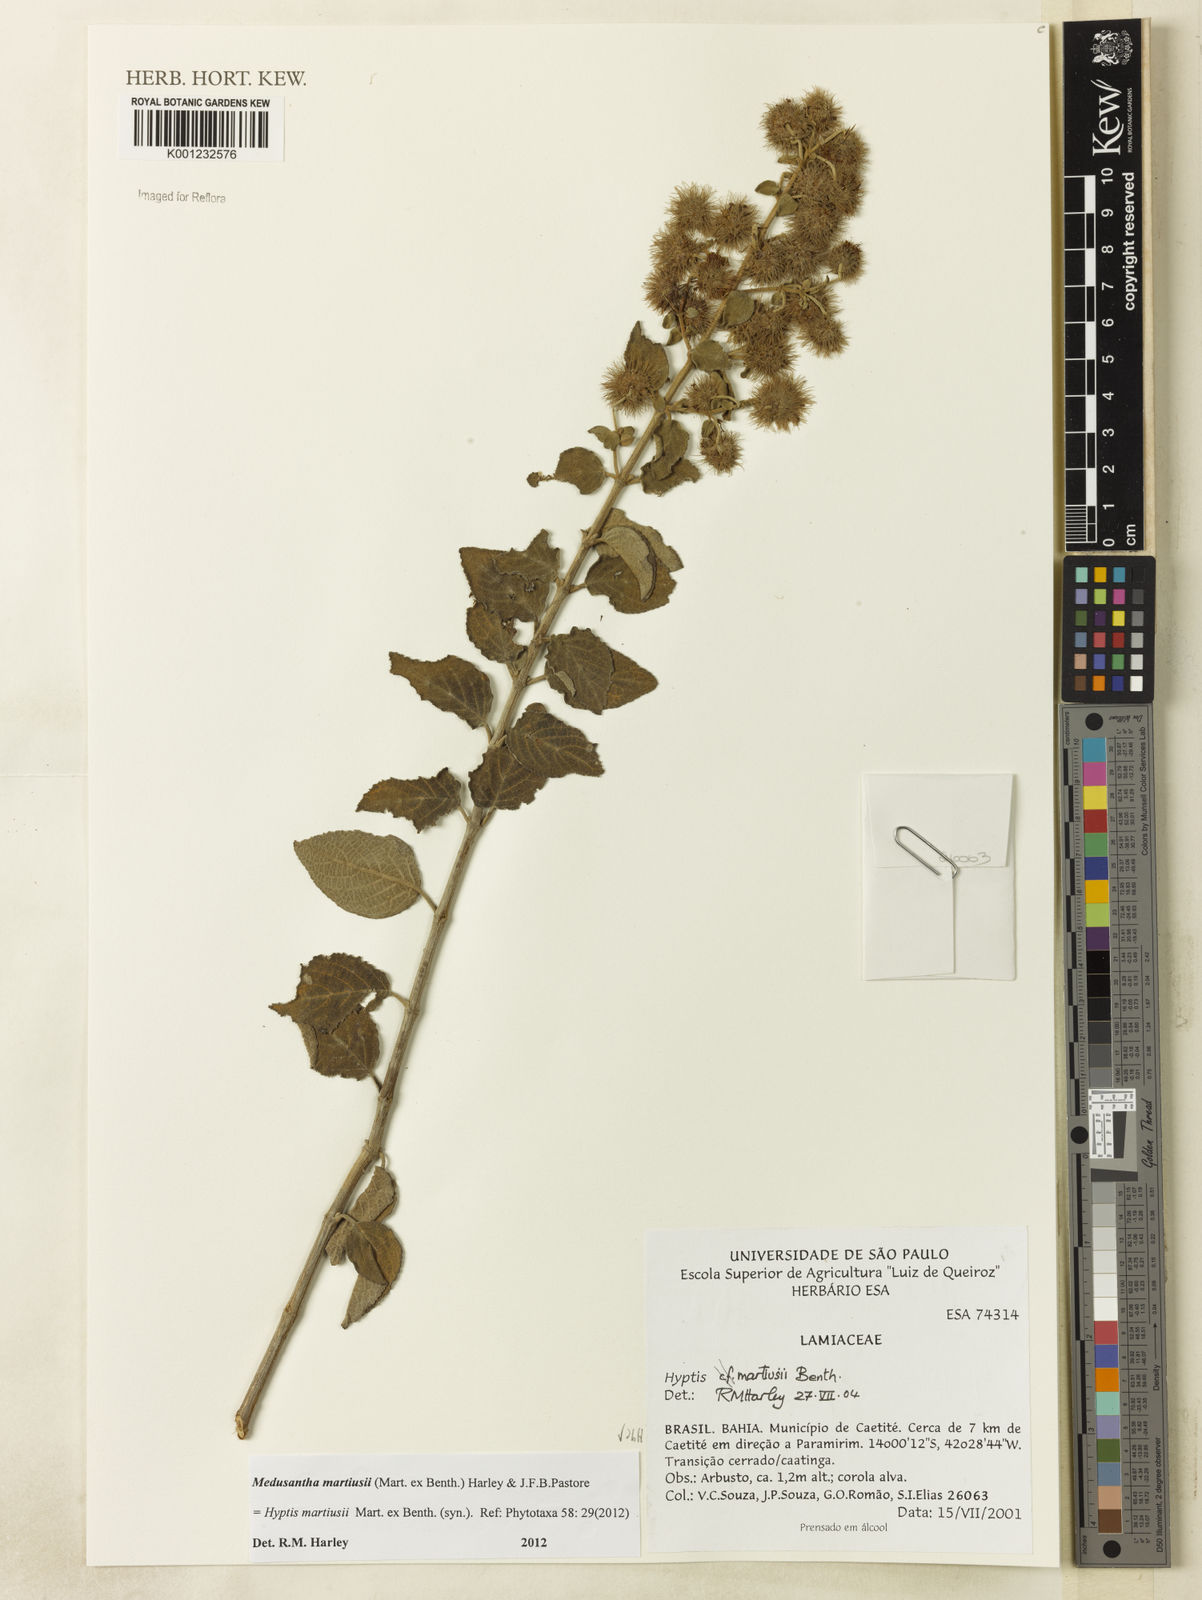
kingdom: Plantae
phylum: Tracheophyta
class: Magnoliopsida
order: Lamiales
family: Lamiaceae
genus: Medusantha
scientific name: Medusantha martiusii
